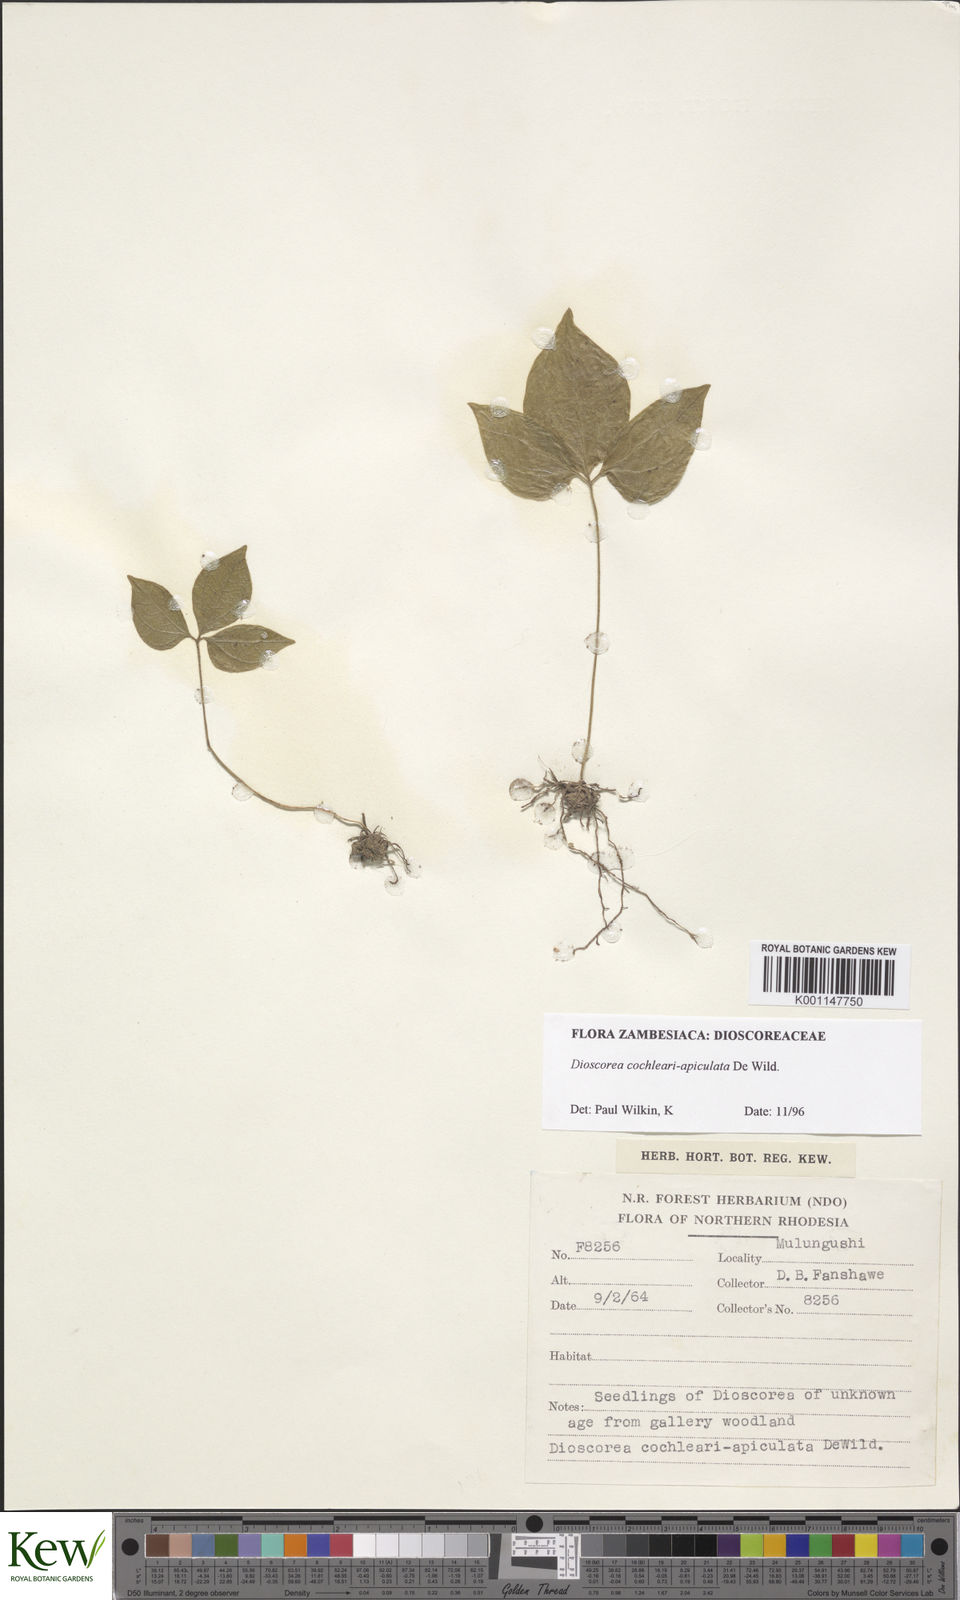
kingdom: Plantae
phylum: Tracheophyta
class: Liliopsida
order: Dioscoreales
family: Dioscoreaceae
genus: Dioscorea
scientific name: Dioscorea cochleariapiculata
